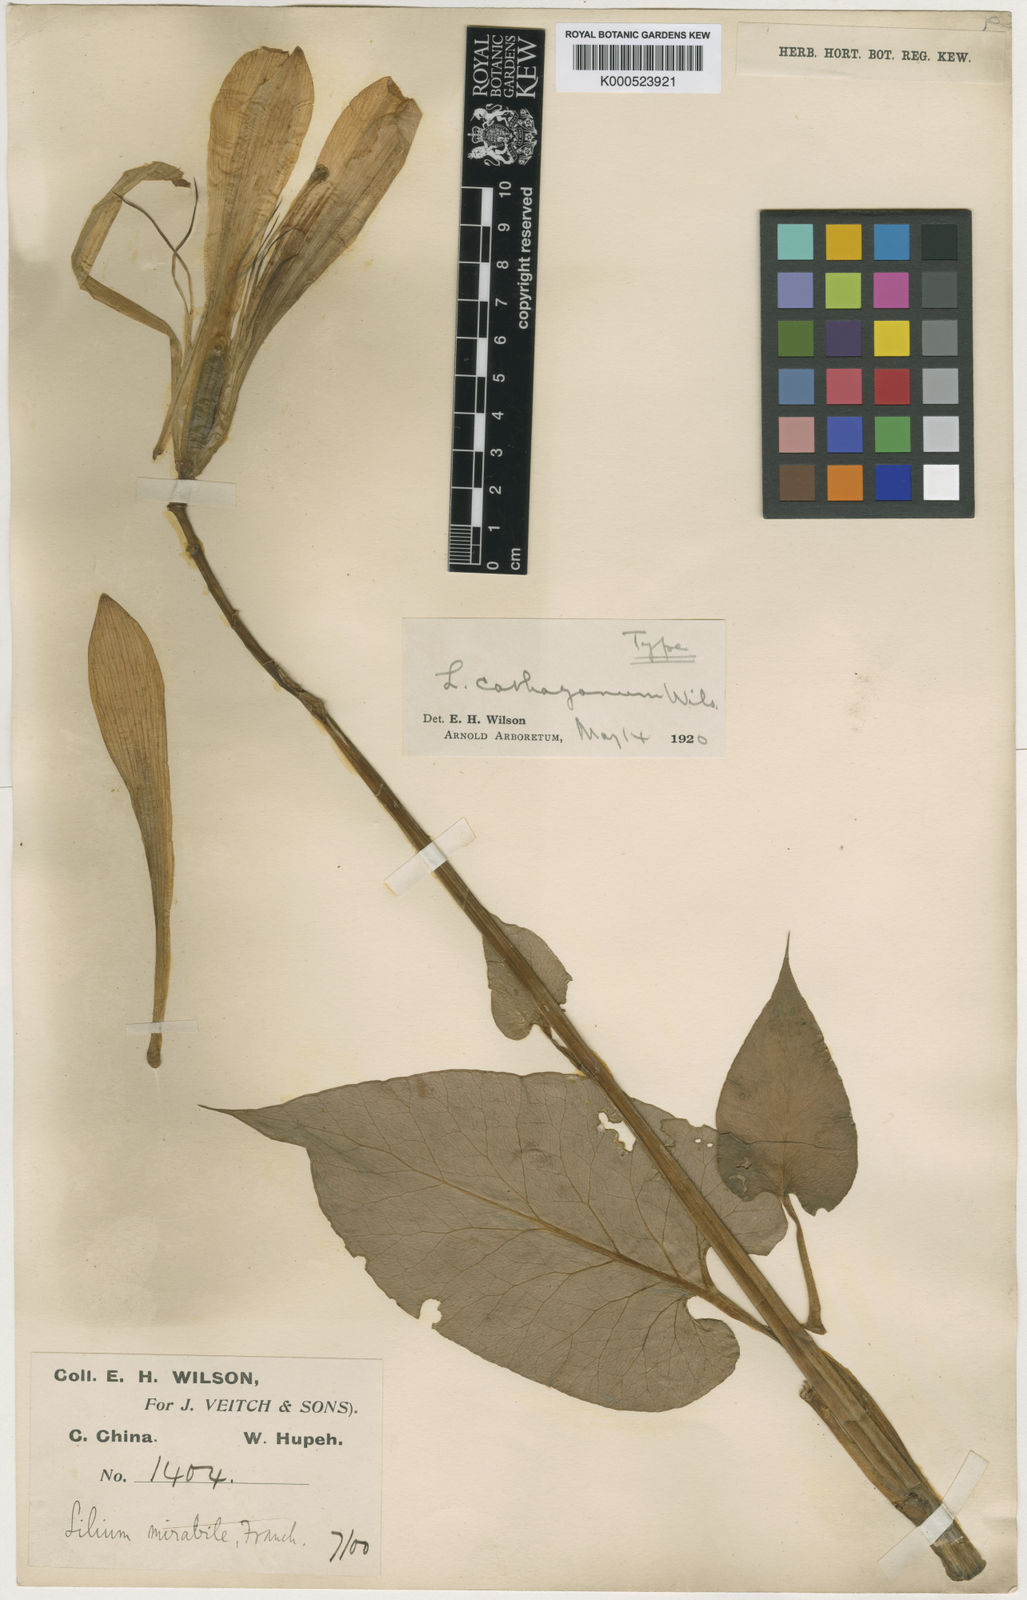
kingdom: Plantae
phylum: Tracheophyta
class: Liliopsida
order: Liliales
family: Liliaceae
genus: Cardiocrinum
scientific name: Cardiocrinum cathayanum
